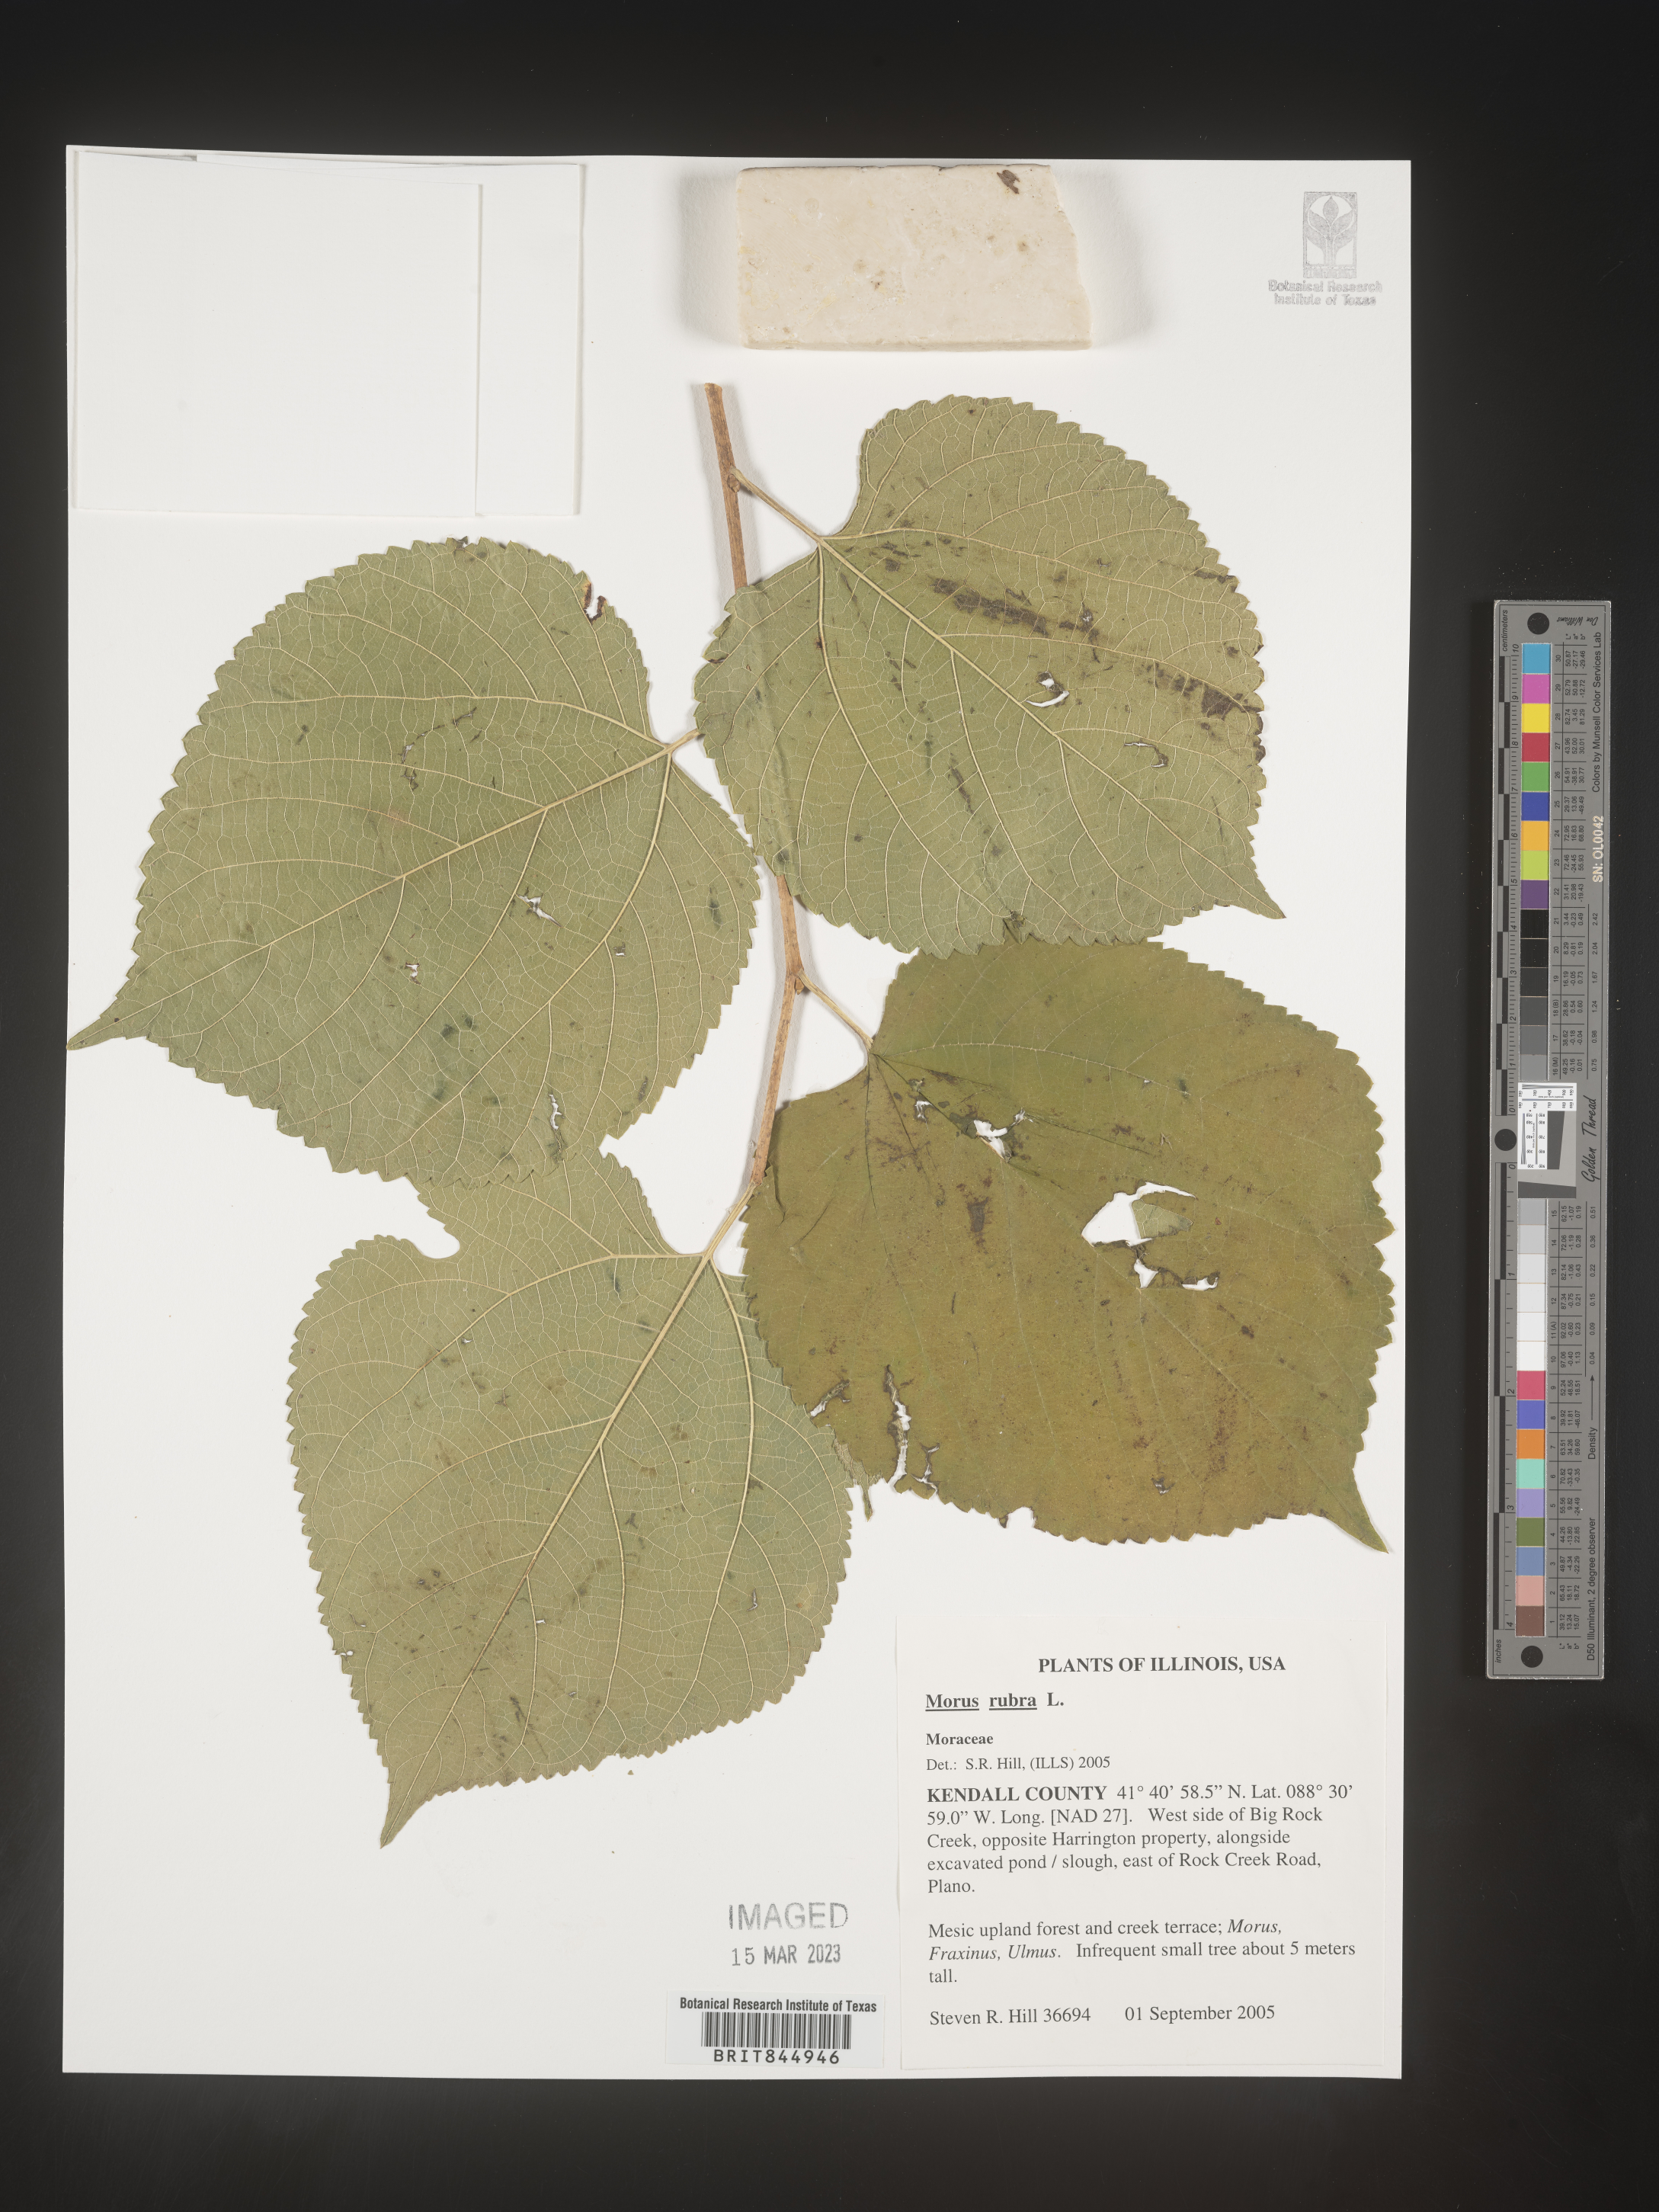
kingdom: Plantae
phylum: Tracheophyta
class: Magnoliopsida
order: Rosales
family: Moraceae
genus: Morus
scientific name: Morus rubra
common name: Red mulberry
